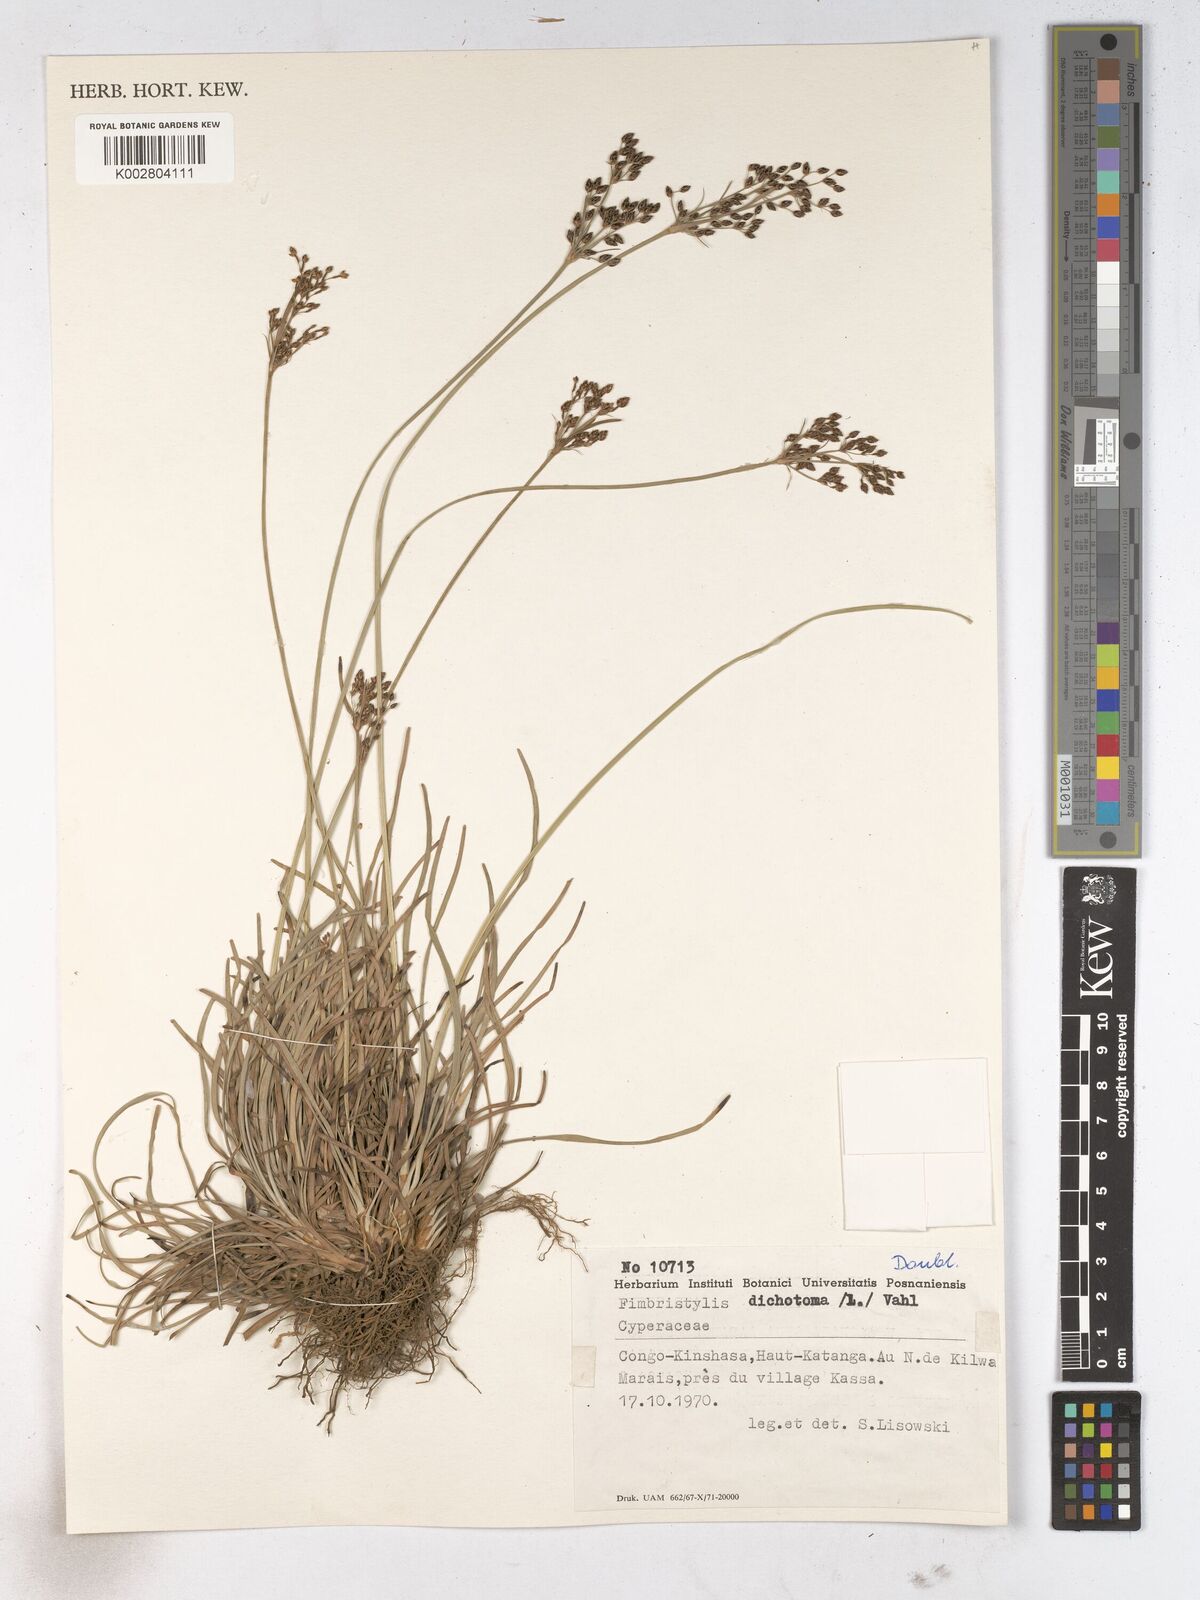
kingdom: Plantae
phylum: Tracheophyta
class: Liliopsida
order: Poales
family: Cyperaceae
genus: Fimbristylis
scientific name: Fimbristylis dichotoma
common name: Forked fimbry
